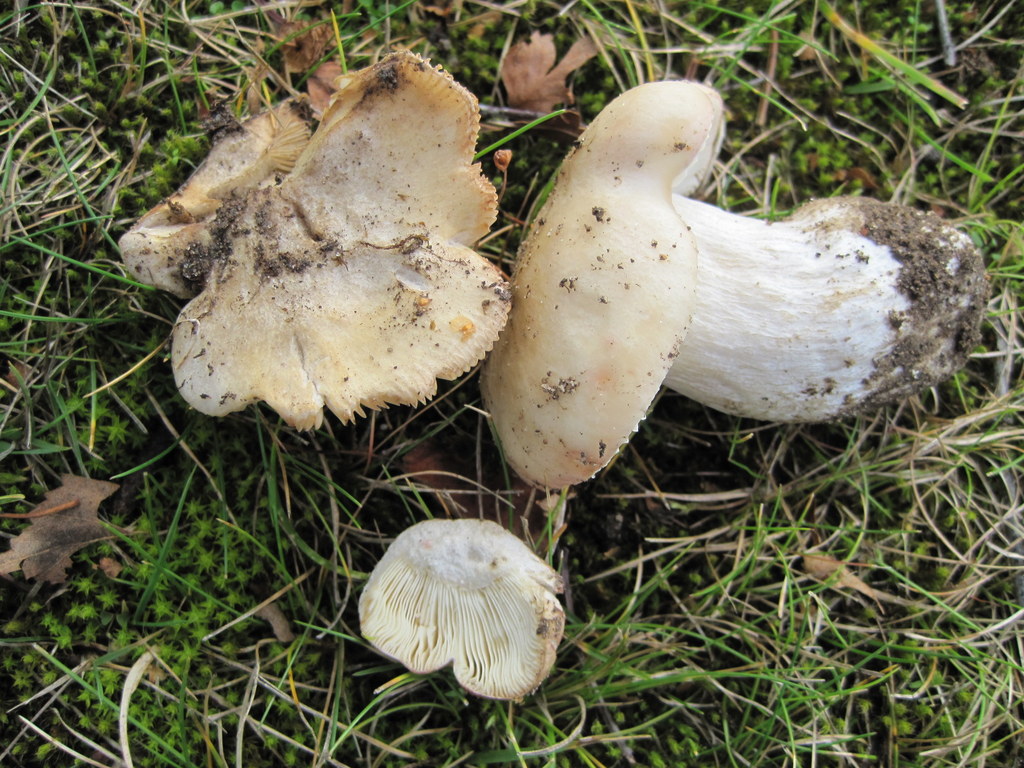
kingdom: Fungi
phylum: Basidiomycota
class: Agaricomycetes
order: Russulales
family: Russulaceae
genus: Russula
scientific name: Russula depallens
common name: falmende skørhat
